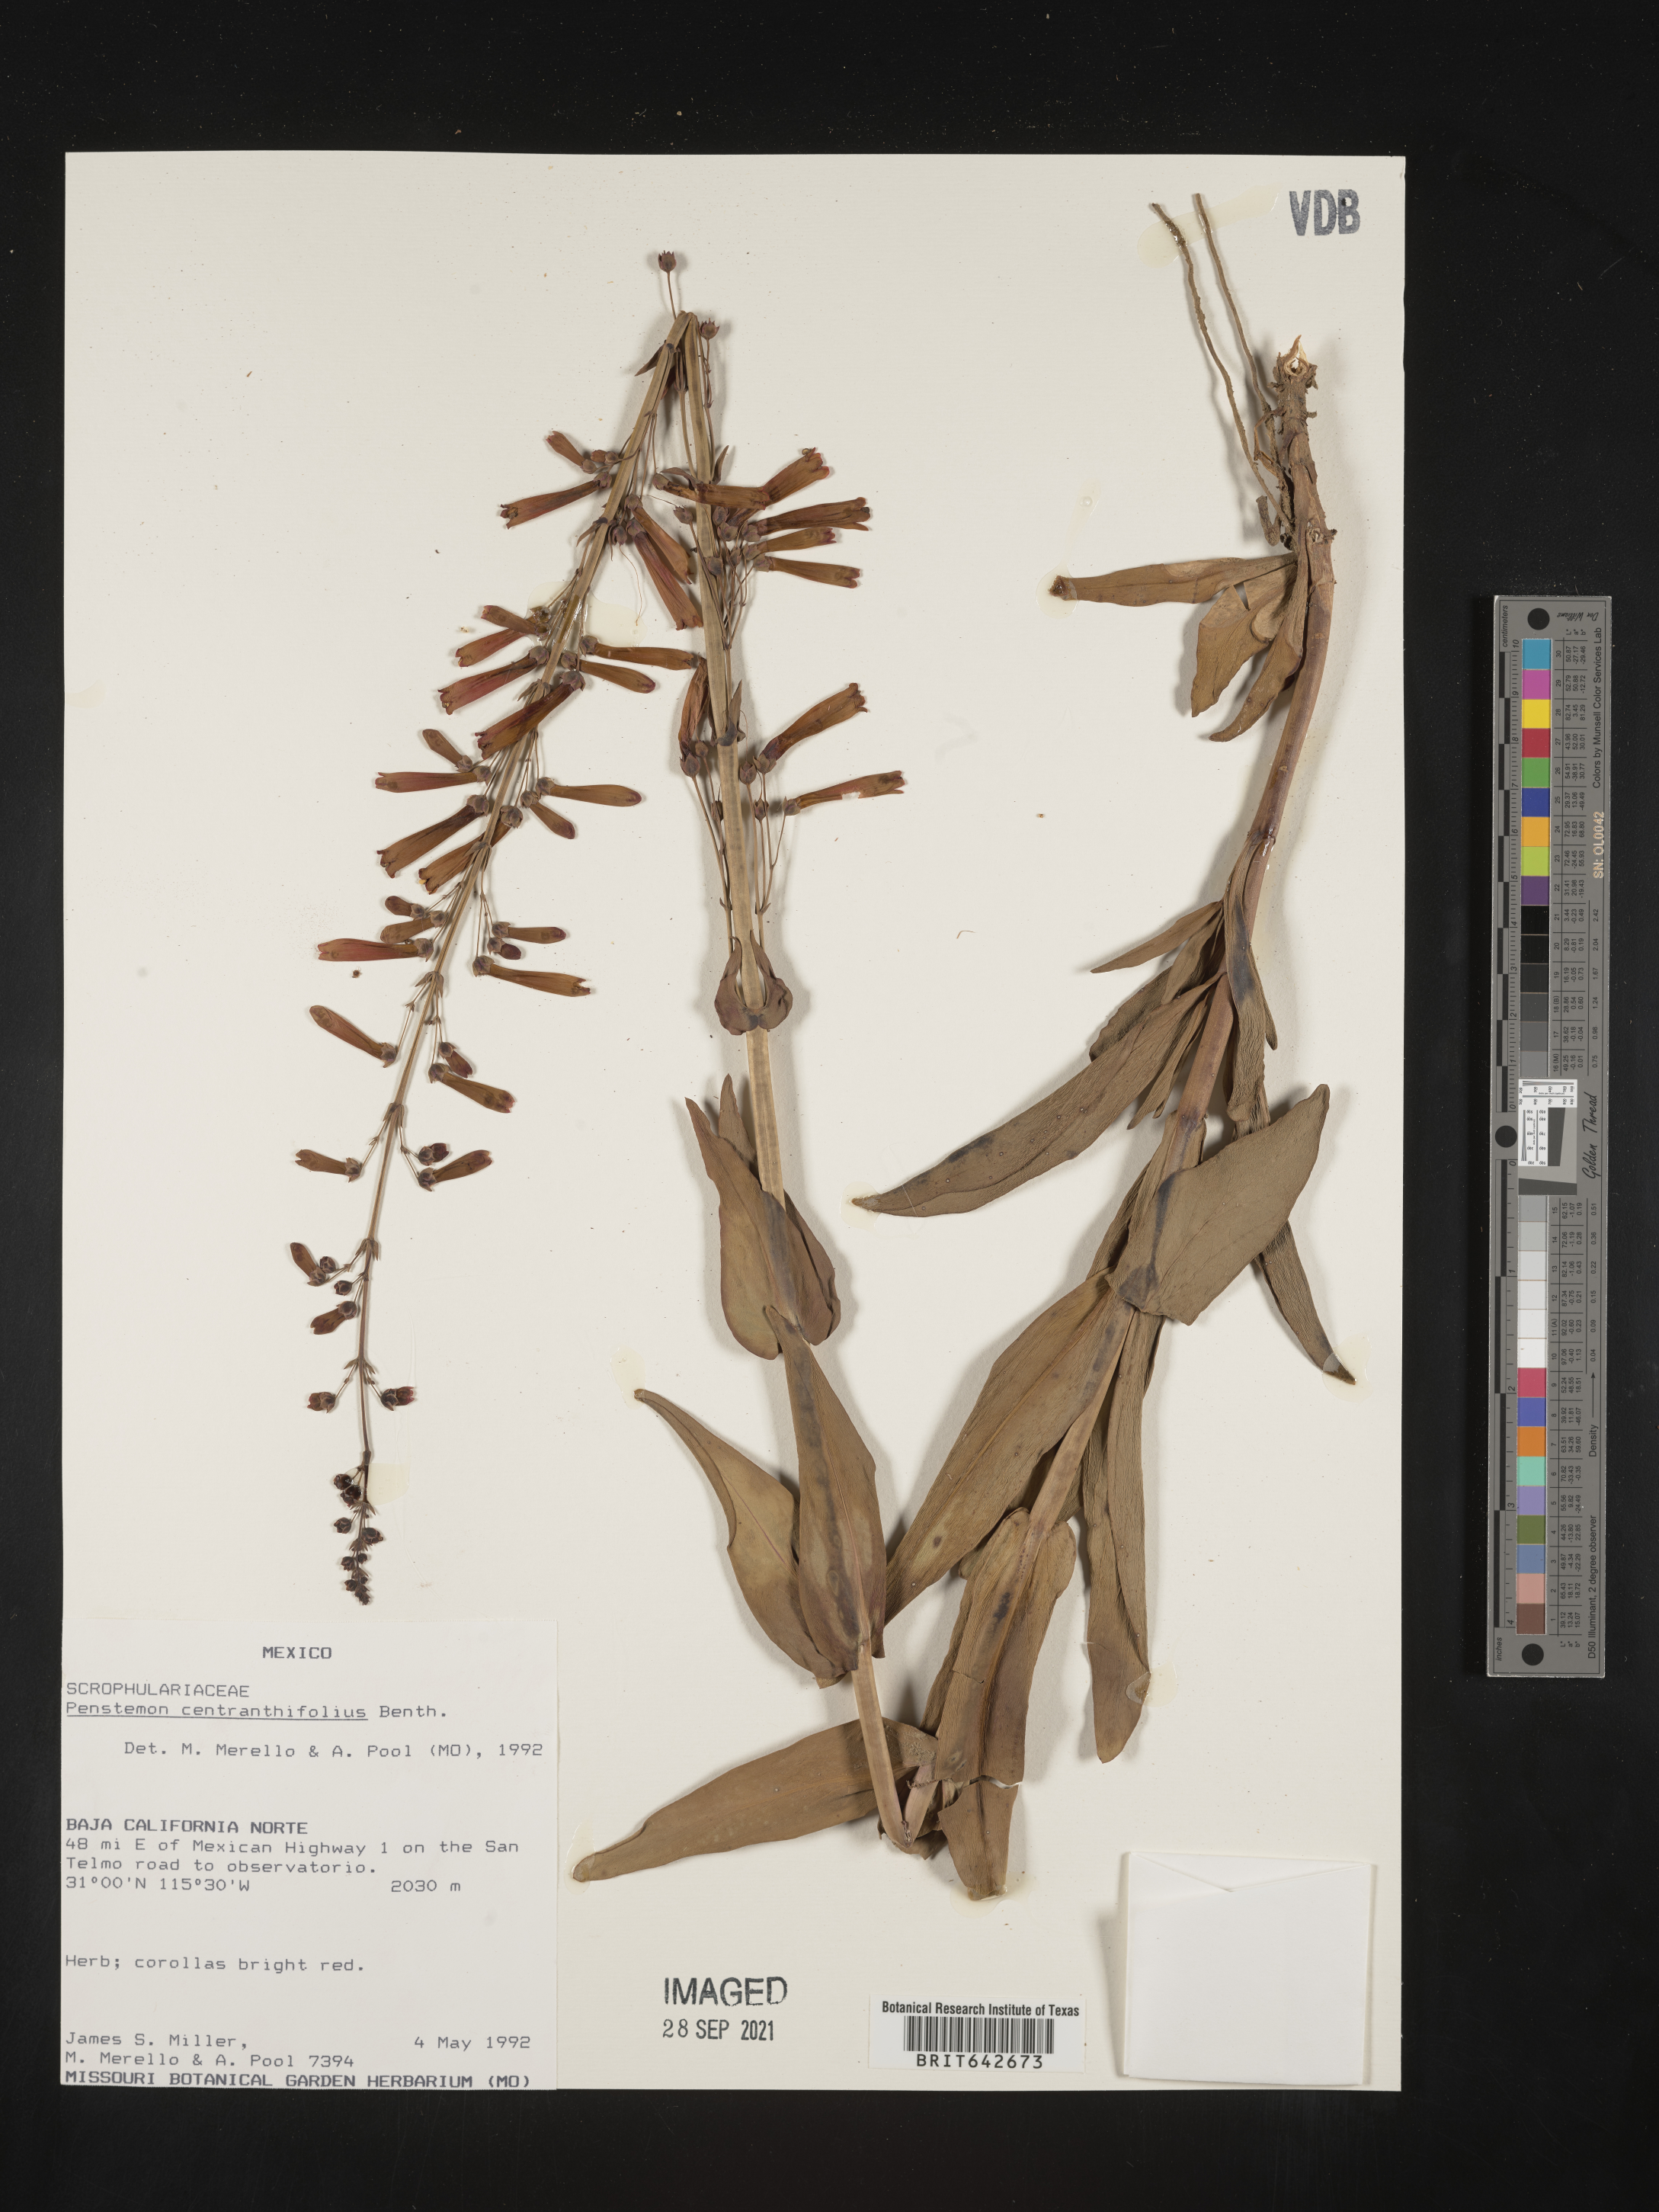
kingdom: Plantae
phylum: Tracheophyta
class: Magnoliopsida
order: Lamiales
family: Plantaginaceae
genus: Penstemon
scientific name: Penstemon
